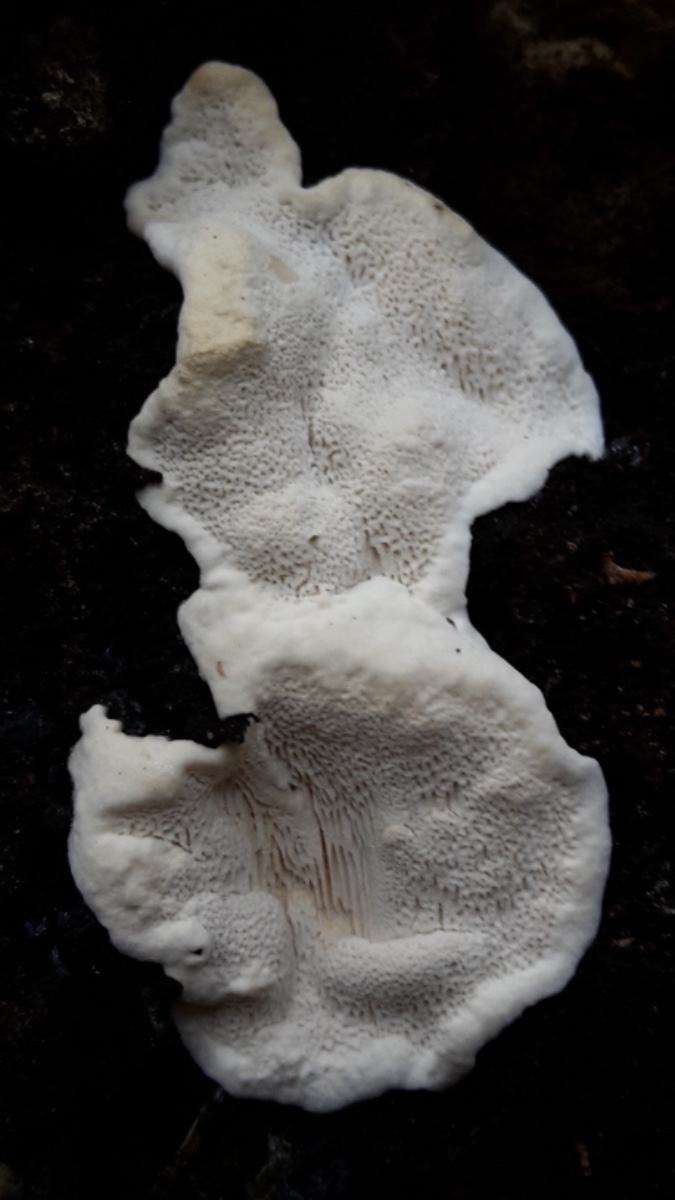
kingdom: Fungi
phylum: Basidiomycota
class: Agaricomycetes
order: Russulales
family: Bondarzewiaceae
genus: Heterobasidion
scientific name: Heterobasidion annosum
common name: almindelig rodfordærver
